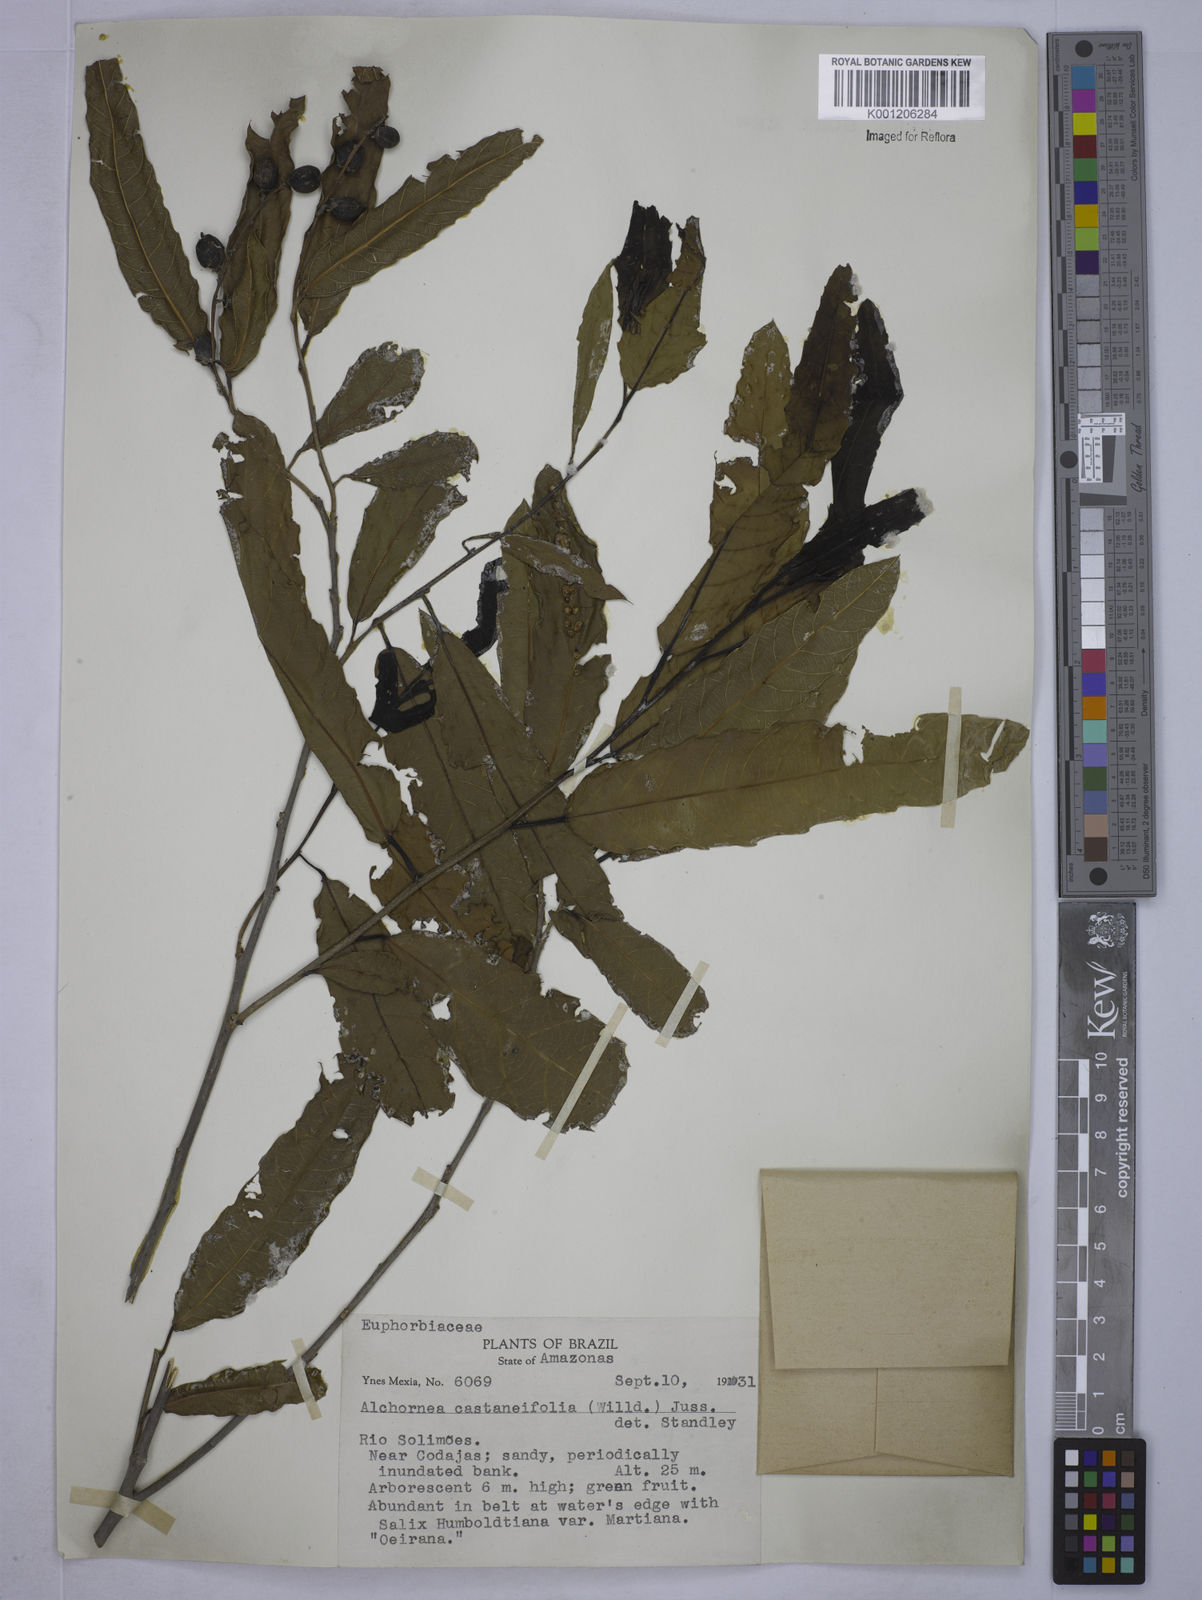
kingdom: Plantae
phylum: Tracheophyta
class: Magnoliopsida
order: Malpighiales
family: Euphorbiaceae
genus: Alchornea
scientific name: Alchornea castaneifolia
